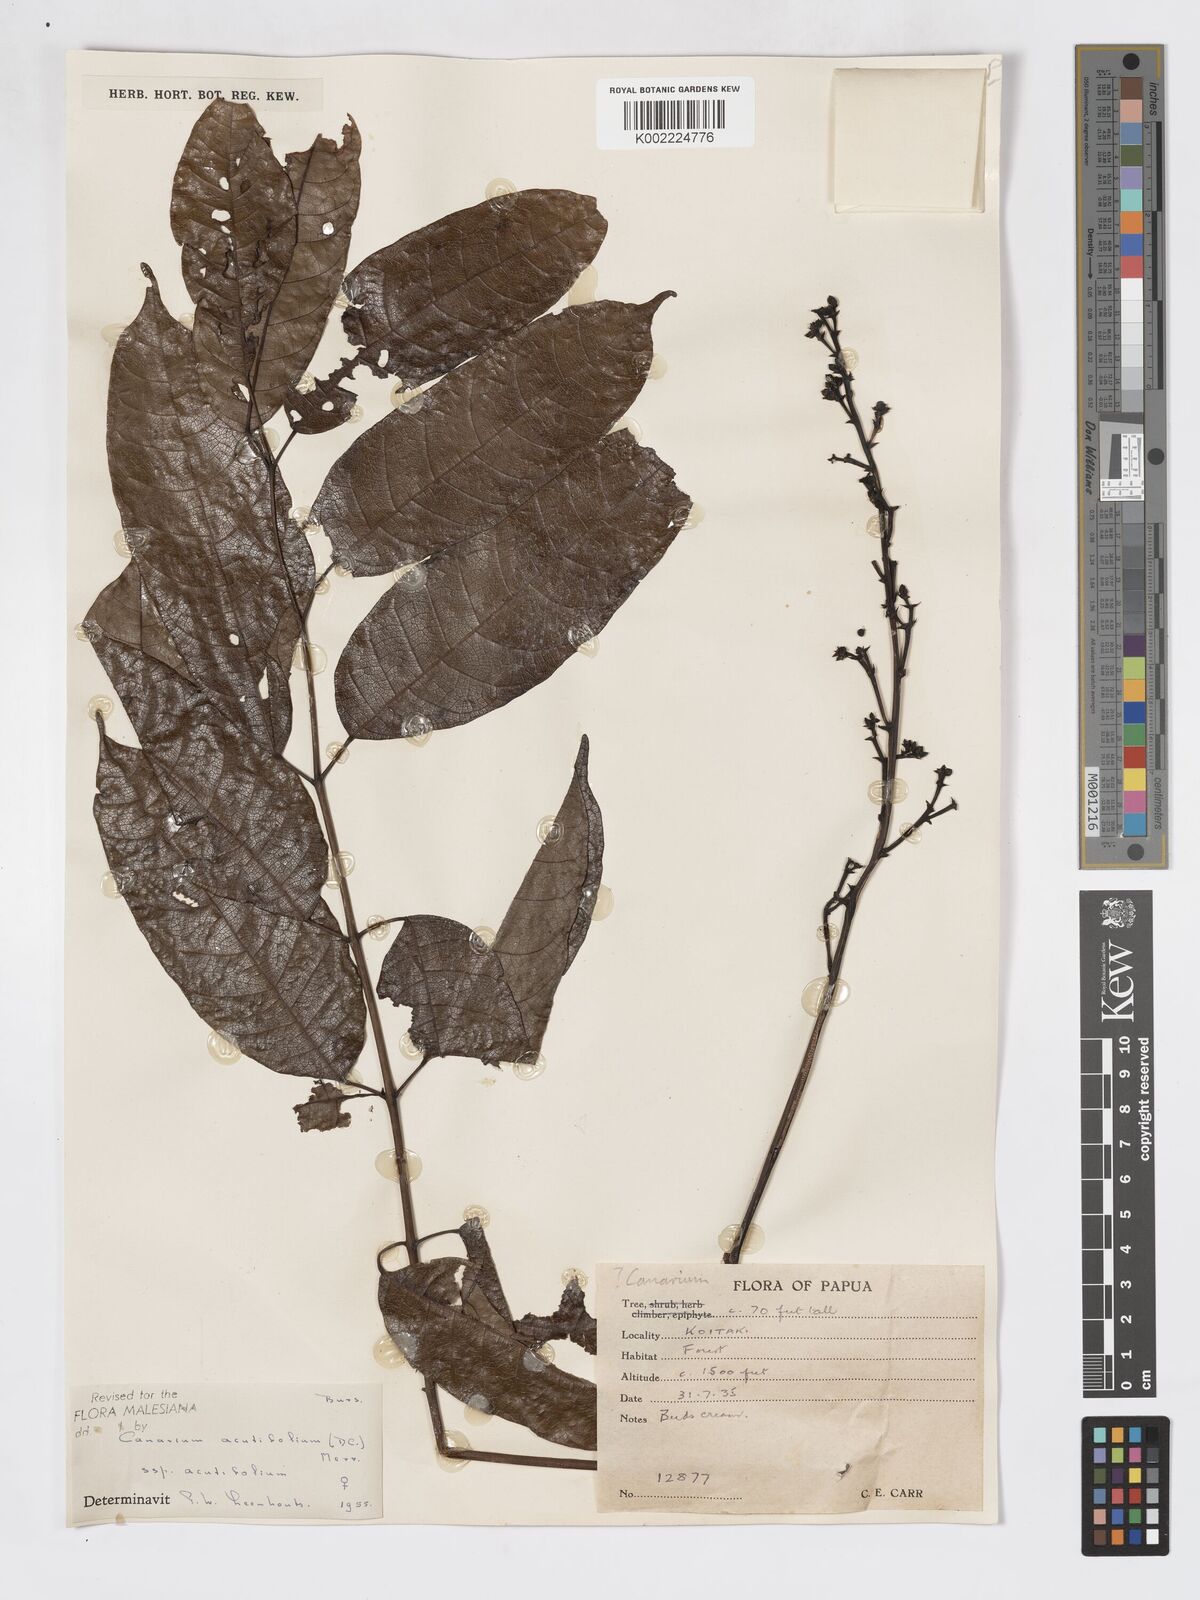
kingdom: Plantae
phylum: Tracheophyta
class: Magnoliopsida
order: Sapindales
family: Burseraceae
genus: Canarium
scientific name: Canarium acutifolium
